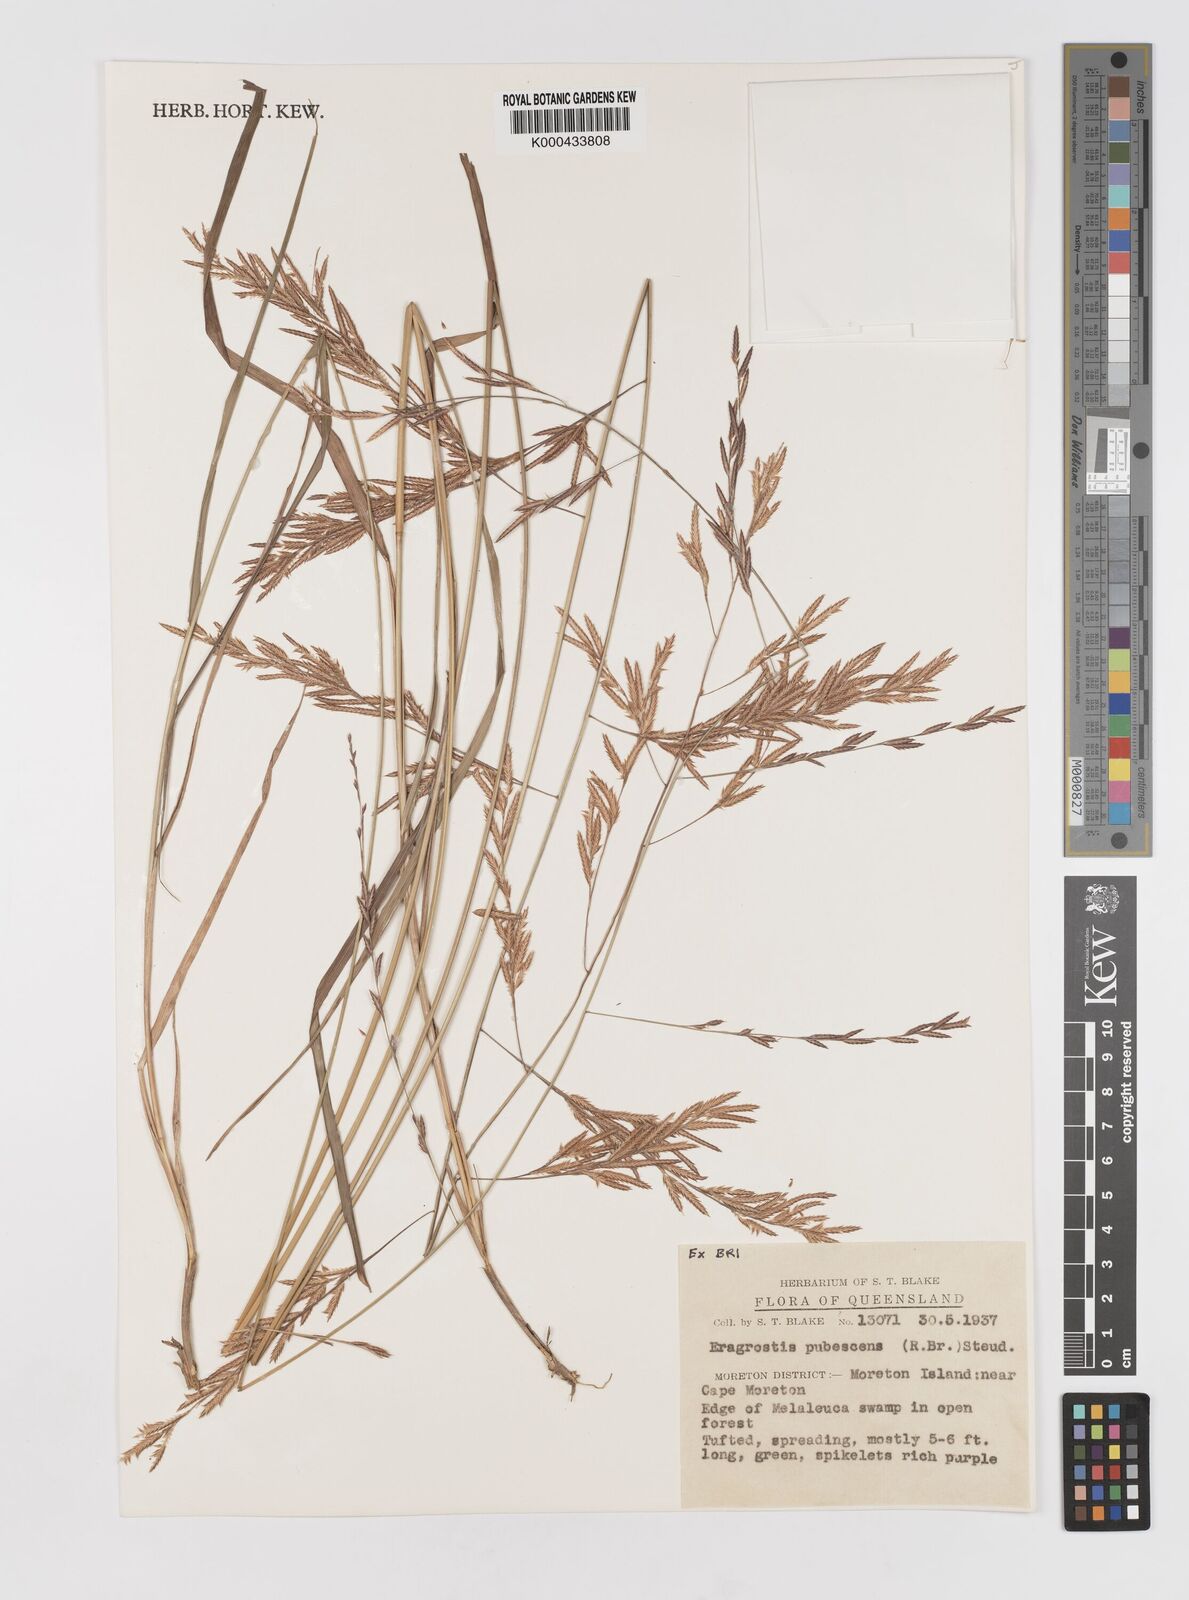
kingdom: Plantae
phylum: Tracheophyta
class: Liliopsida
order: Poales
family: Poaceae
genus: Eragrostis
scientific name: Eragrostis pubescens
